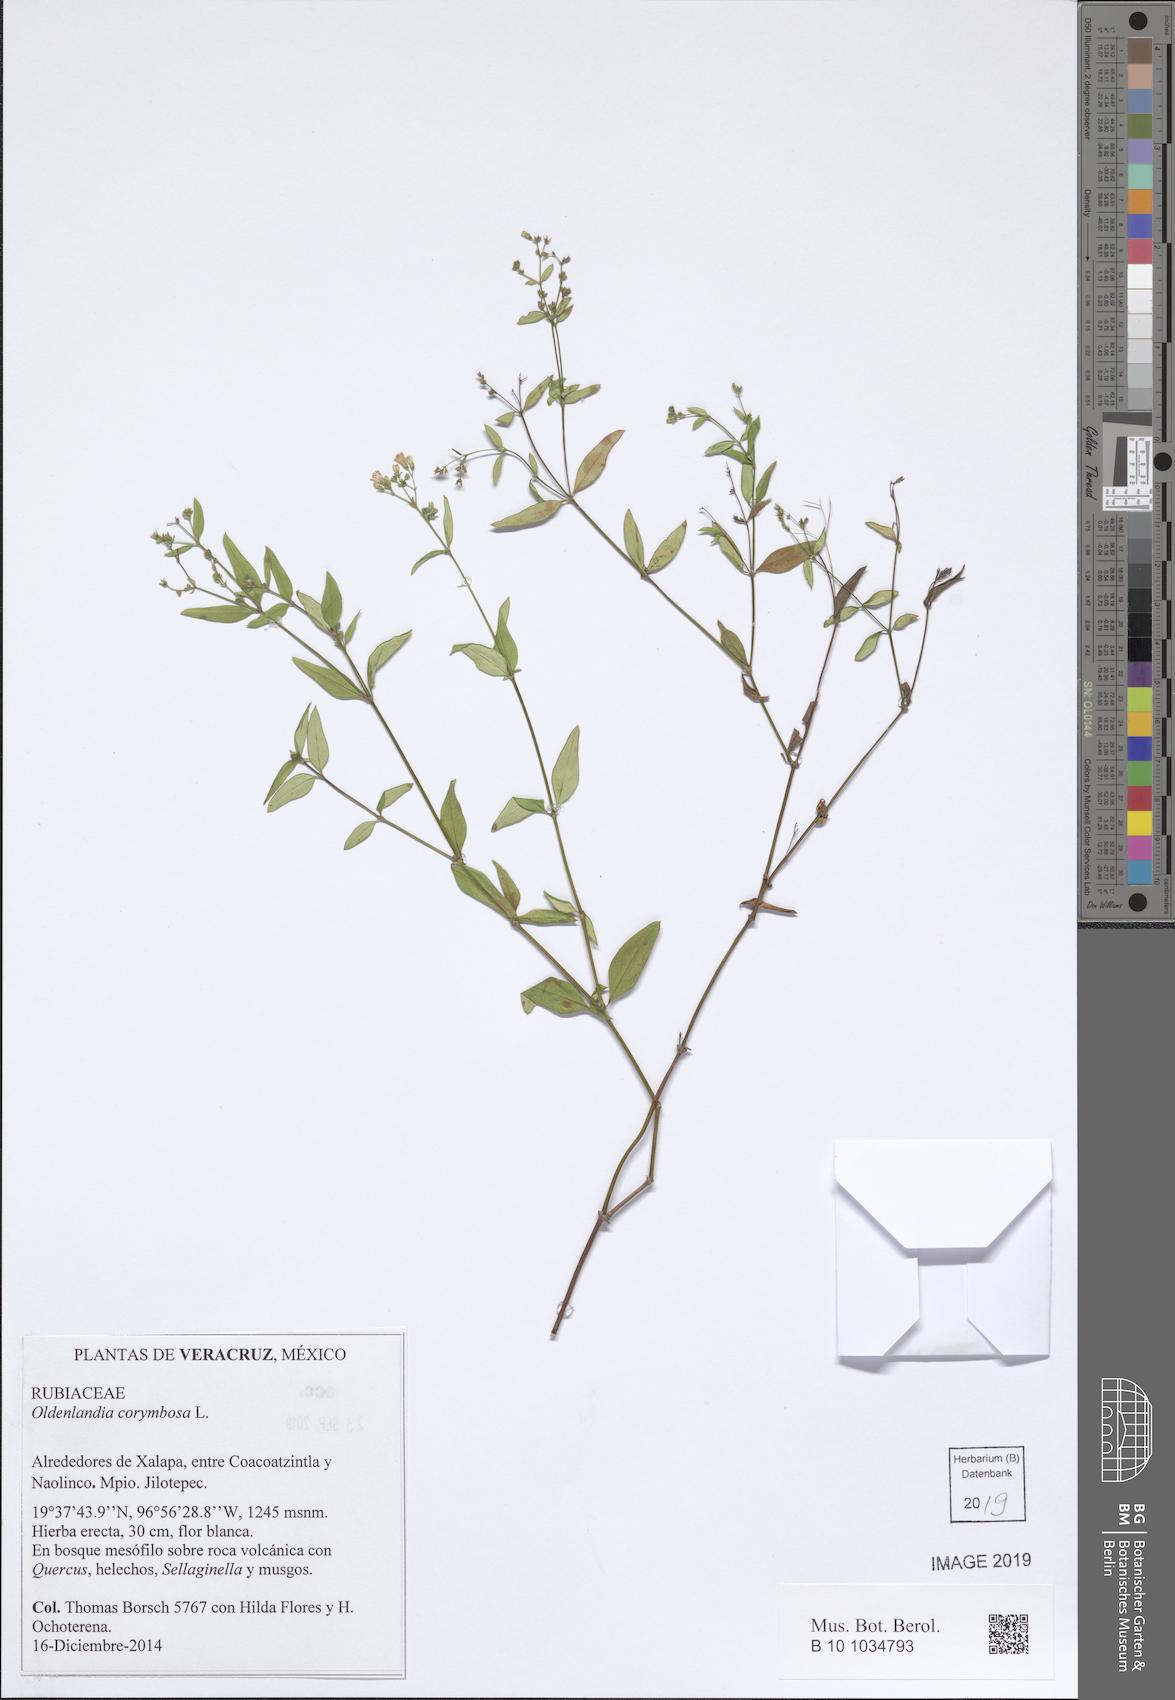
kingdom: Plantae
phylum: Tracheophyta
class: Magnoliopsida
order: Gentianales
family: Rubiaceae
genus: Oldenlandia
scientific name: Oldenlandia corymbosa
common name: Flat-top mille graines
